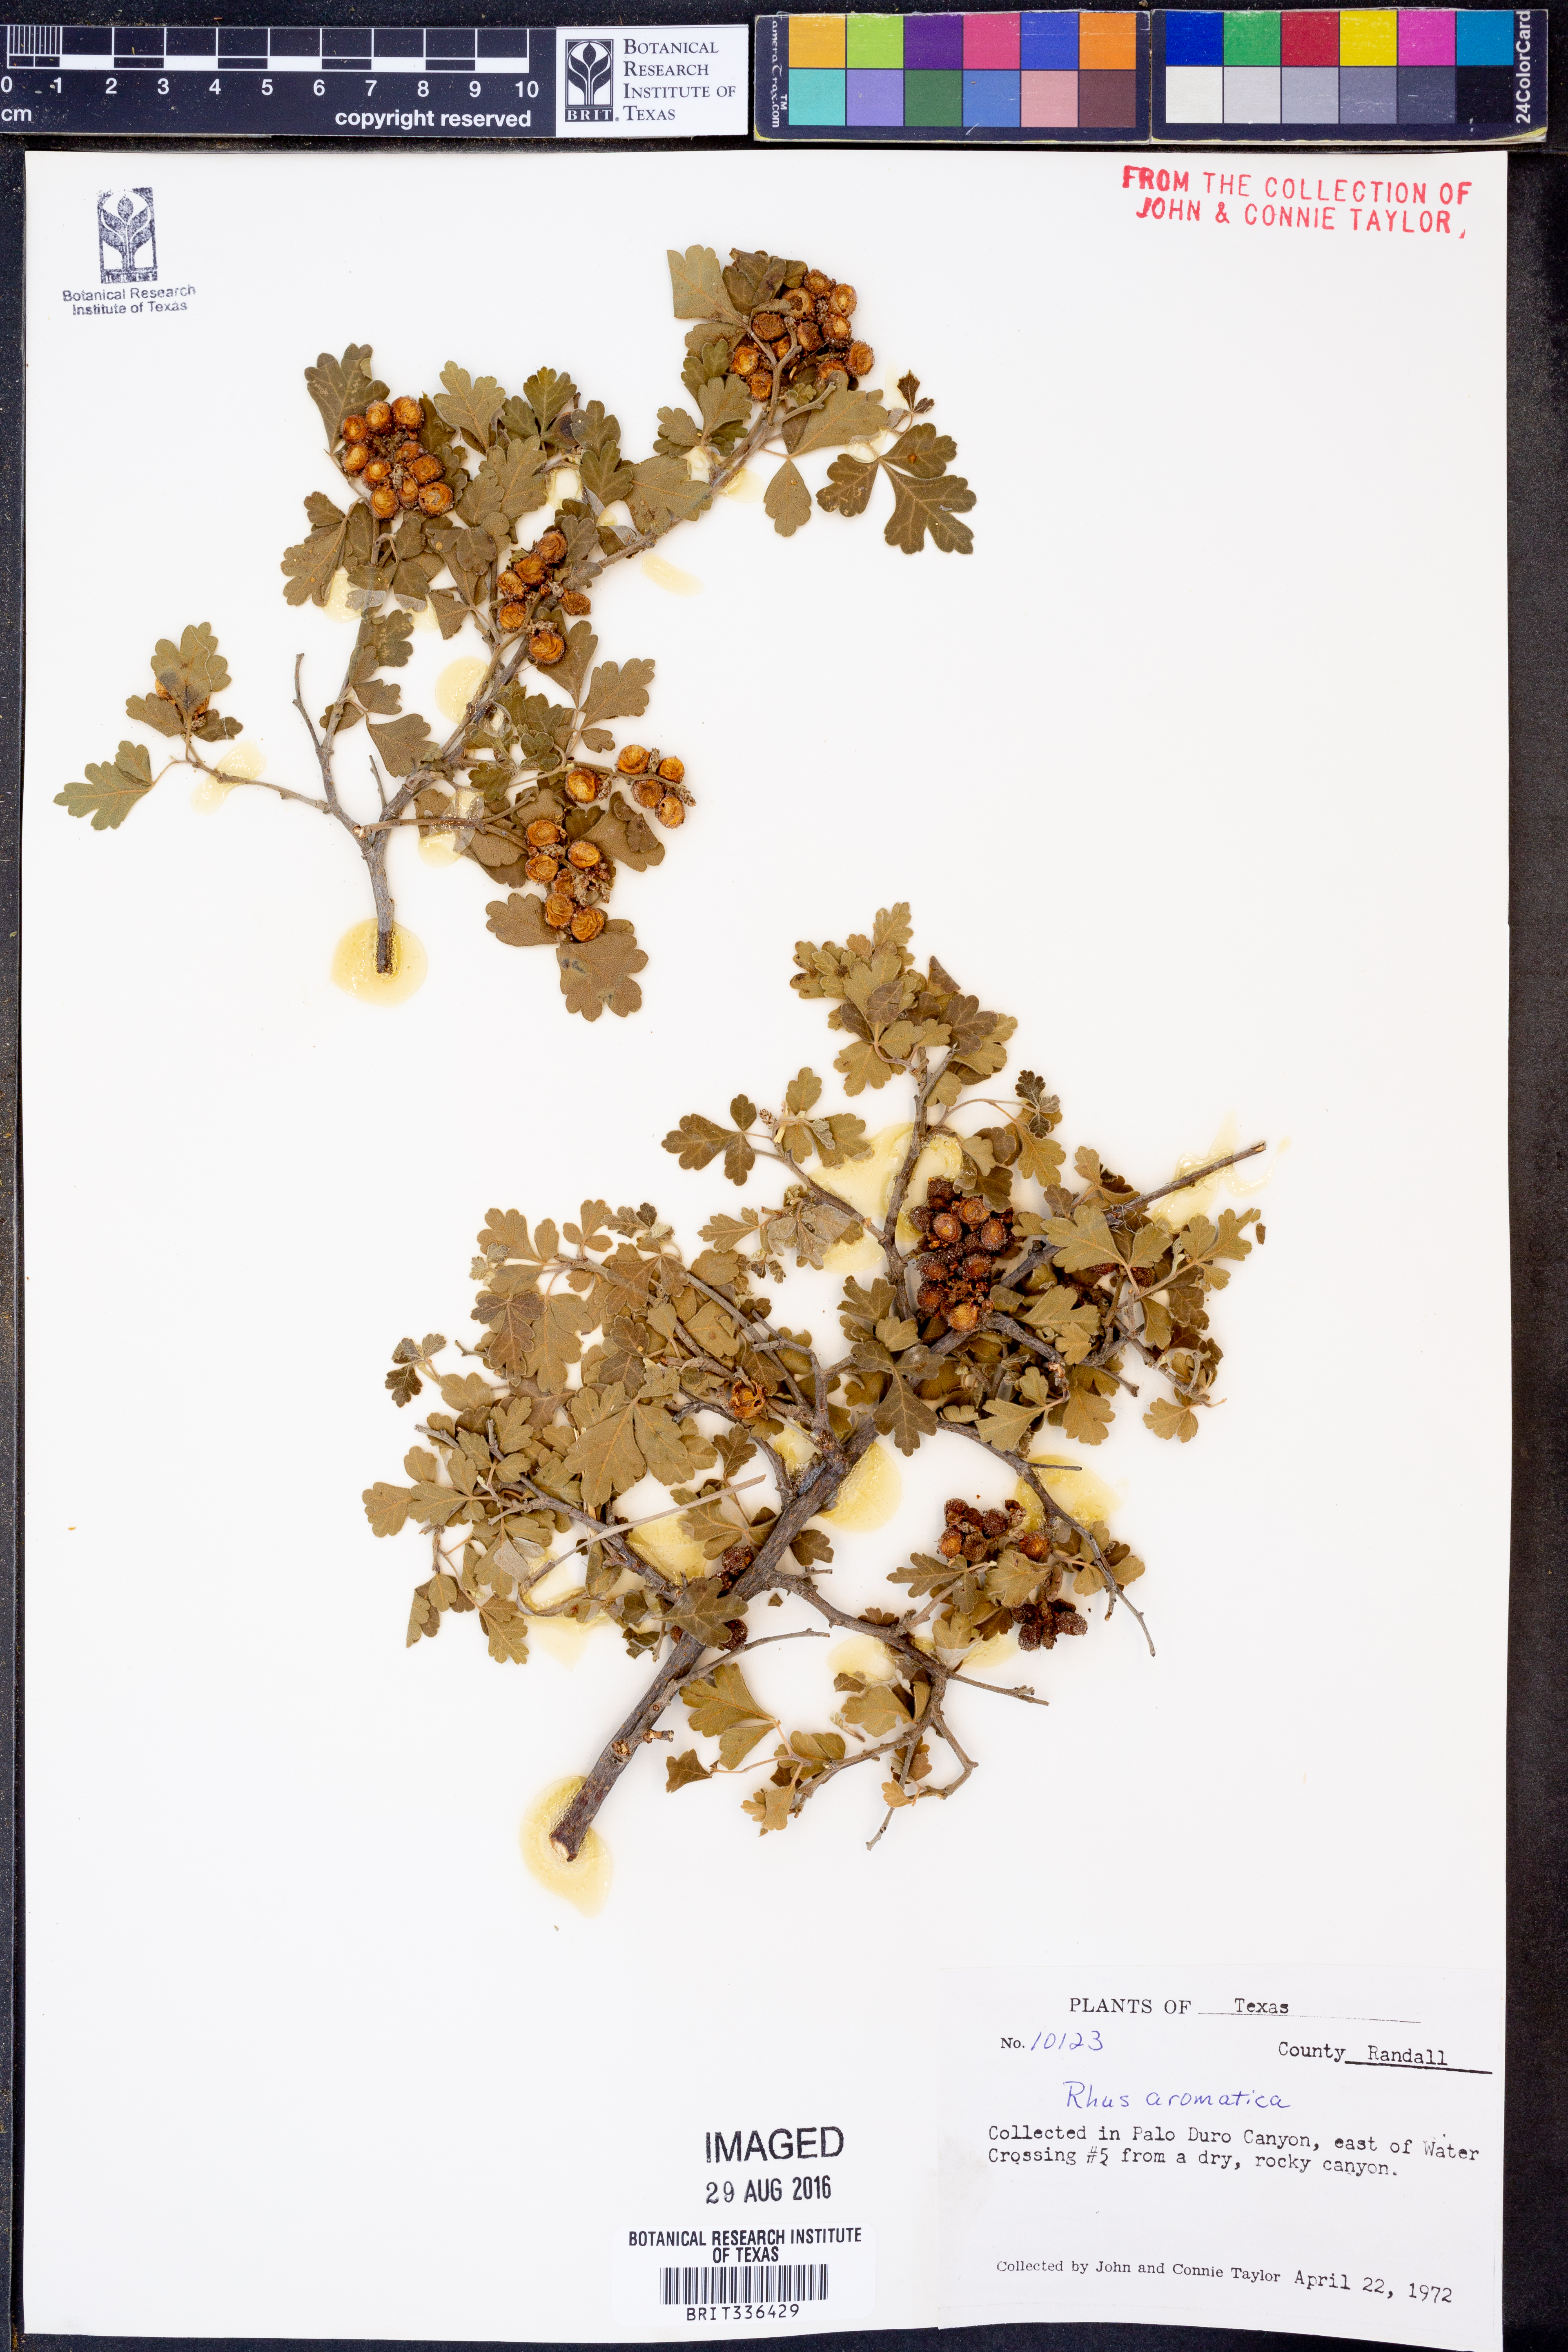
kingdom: Plantae
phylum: Tracheophyta
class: Magnoliopsida
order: Sapindales
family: Anacardiaceae
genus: Rhus
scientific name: Rhus aromatica
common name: Aromatic sumac
